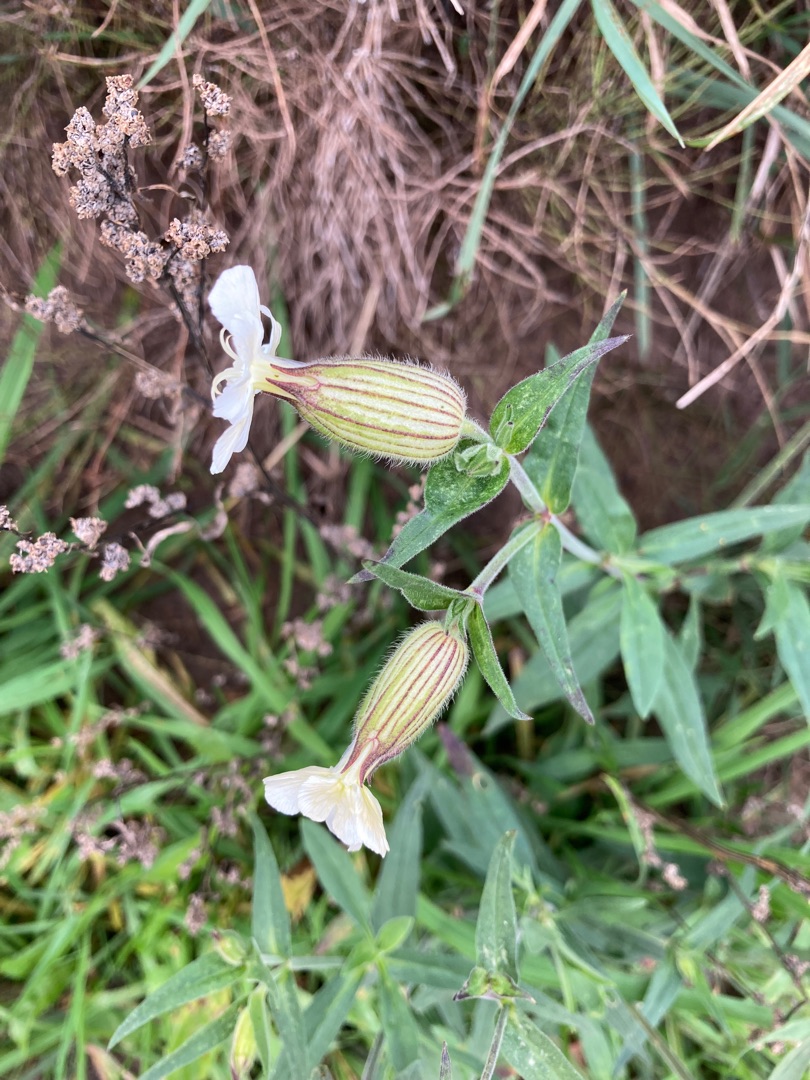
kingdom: Plantae
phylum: Tracheophyta
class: Magnoliopsida
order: Caryophyllales
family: Caryophyllaceae
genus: Silene
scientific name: Silene latifolia
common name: Aftenpragtstjerne
